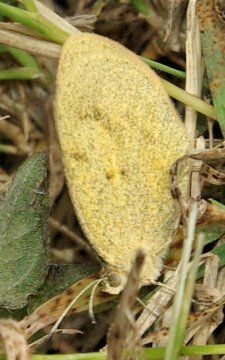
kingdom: Animalia
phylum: Arthropoda
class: Insecta
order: Lepidoptera
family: Pieridae
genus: Eurema
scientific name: Eurema daira
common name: Barred Yellow
